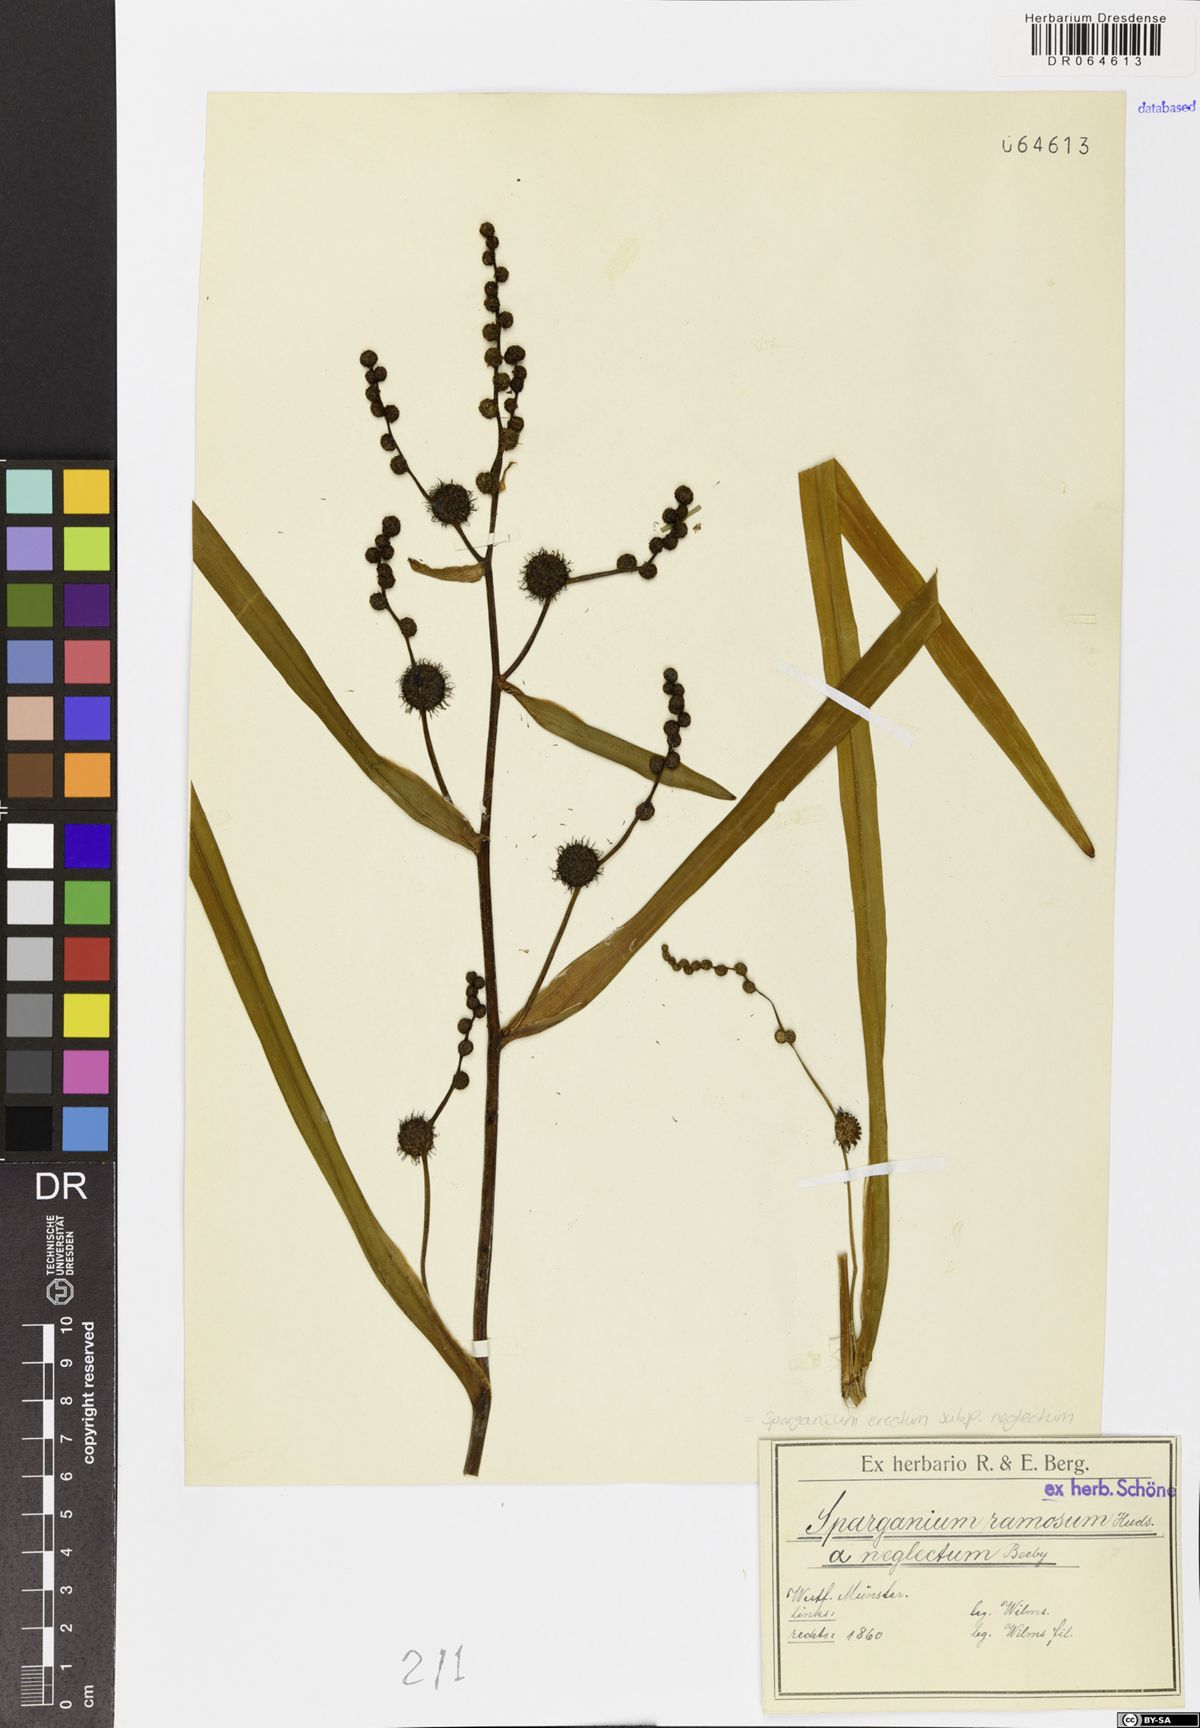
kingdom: Plantae
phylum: Tracheophyta
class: Liliopsida
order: Poales
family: Typhaceae
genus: Sparganium
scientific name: Sparganium erectum
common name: Branched bur-reed
